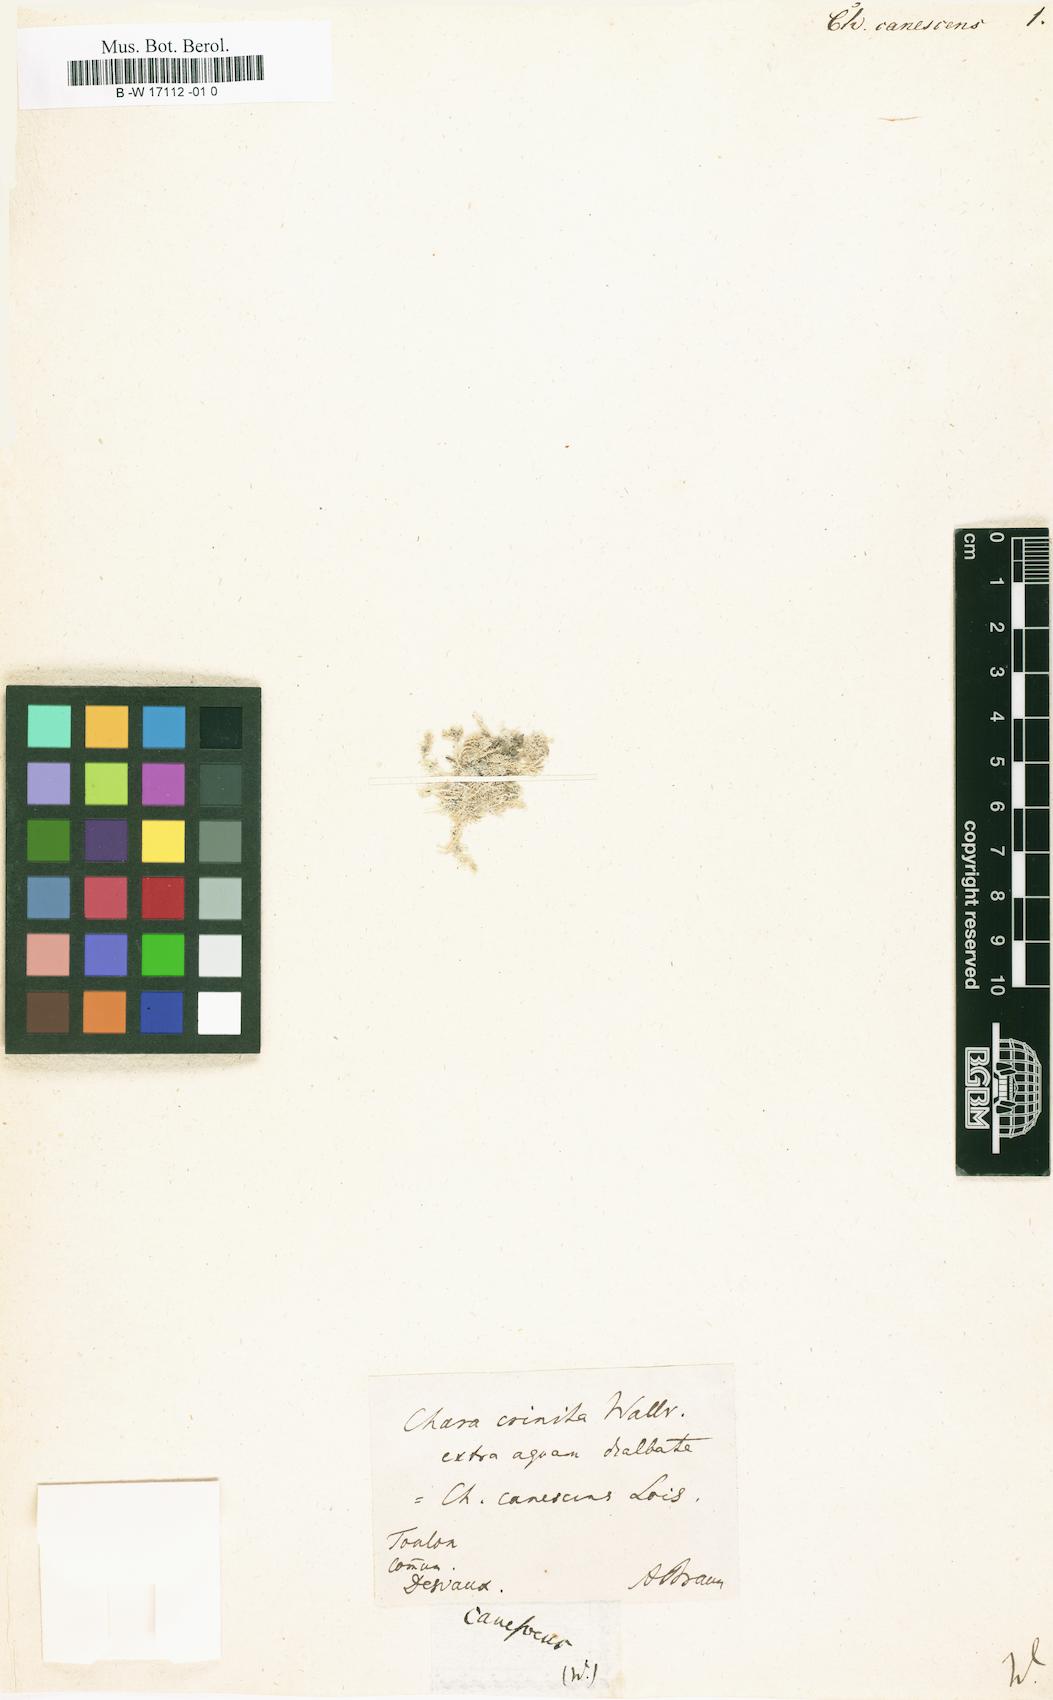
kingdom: Plantae
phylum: Charophyta
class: Charophyceae
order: Charales
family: Characeae
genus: Chara
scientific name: Chara canescens
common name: Bearded stonewort
